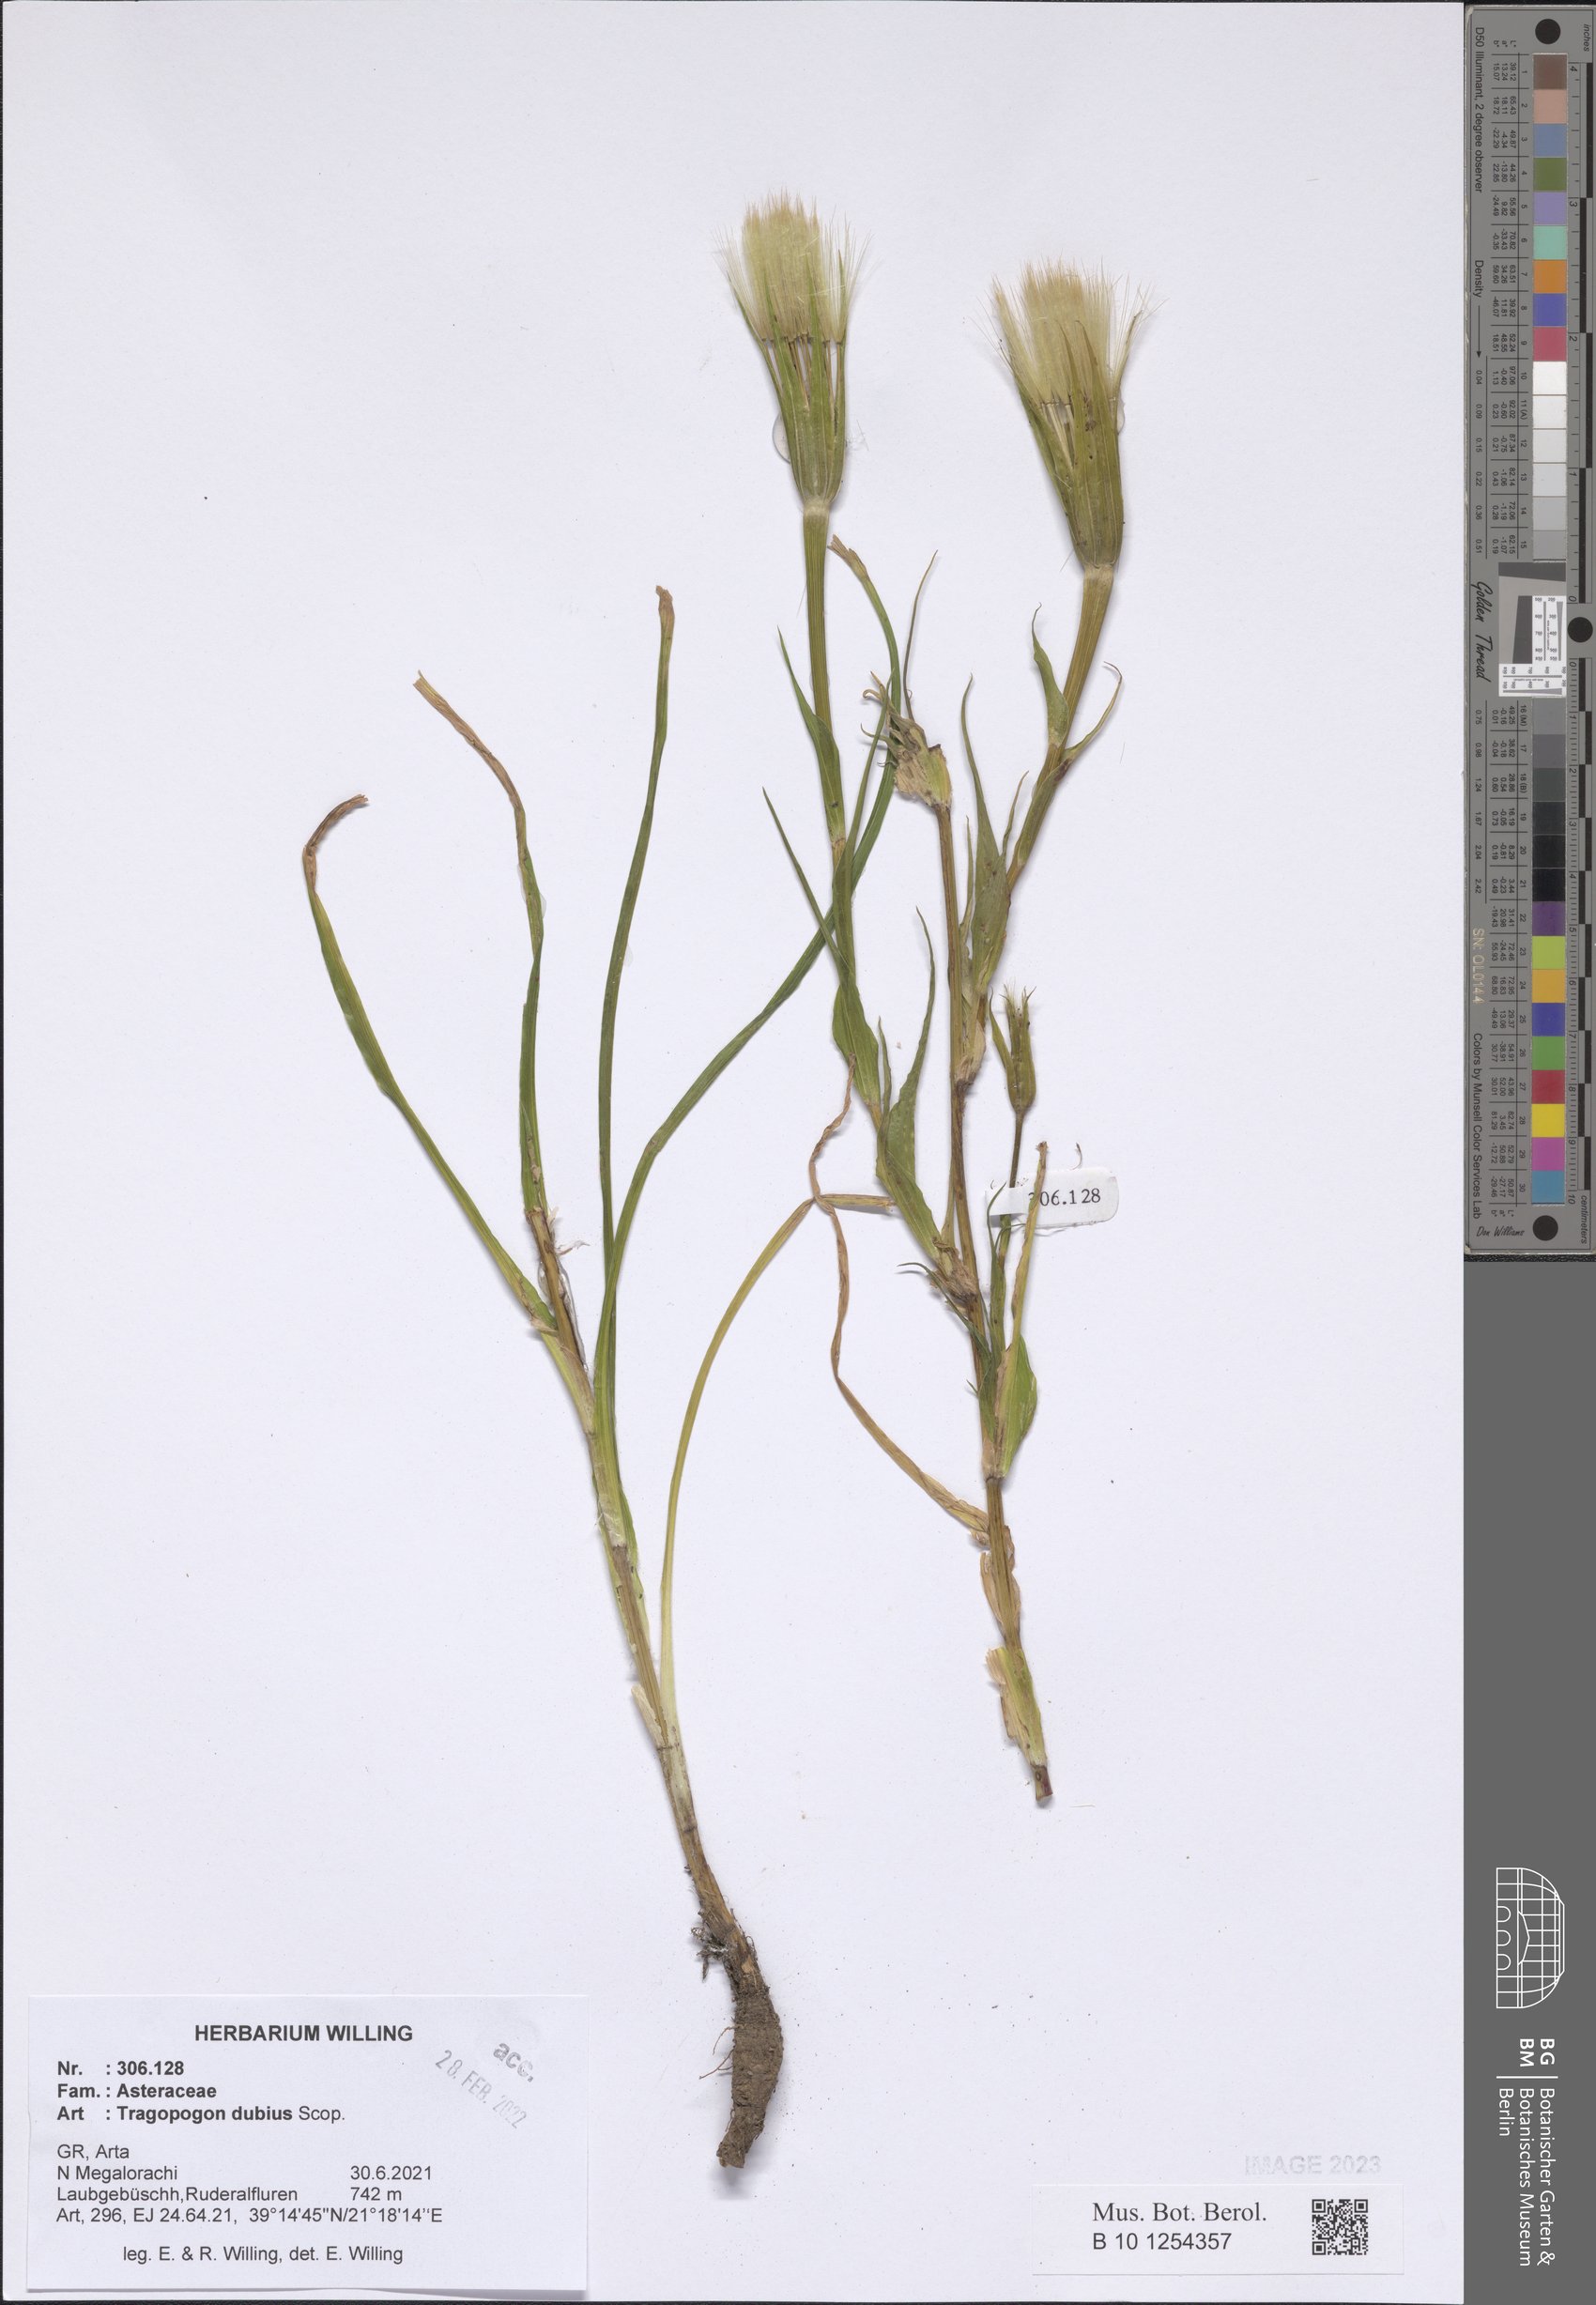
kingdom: Plantae
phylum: Tracheophyta
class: Magnoliopsida
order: Asterales
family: Asteraceae
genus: Tragopogon
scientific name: Tragopogon dubius
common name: Yellow salsify
